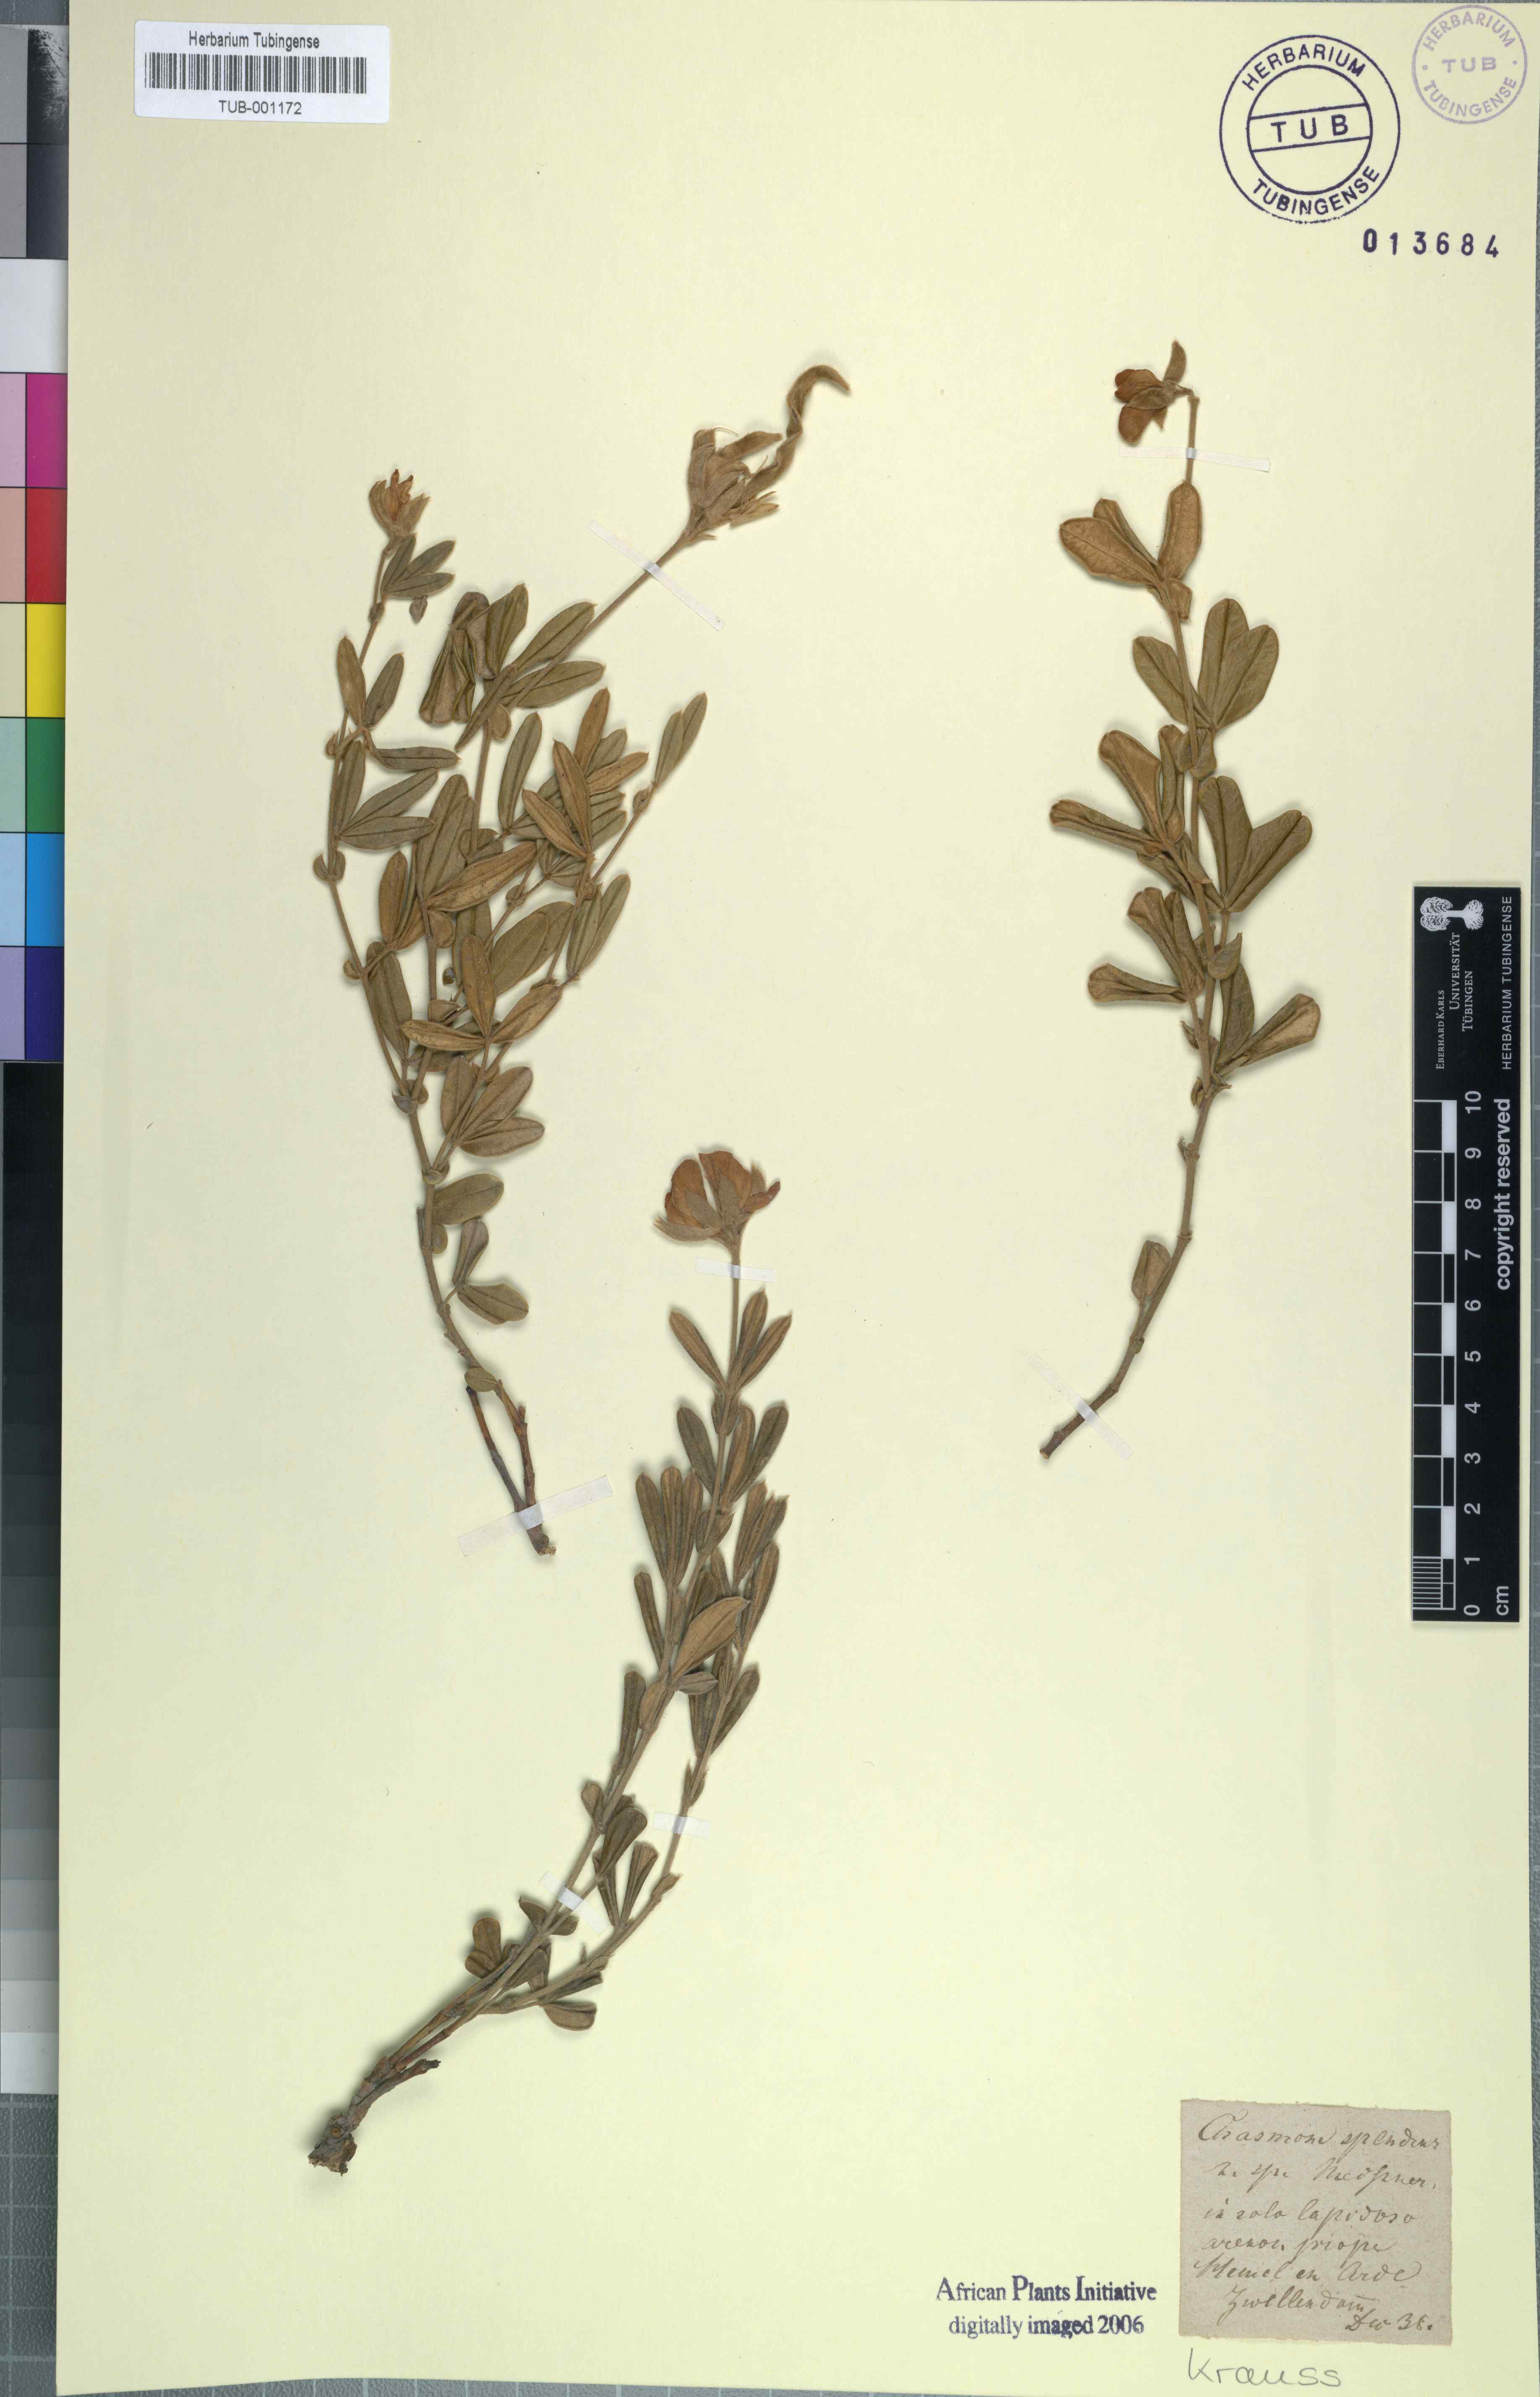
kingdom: Plantae
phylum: Tracheophyta
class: Magnoliopsida
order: Fabales
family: Fabaceae
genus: Argyrolobium
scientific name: Argyrolobium splendens
